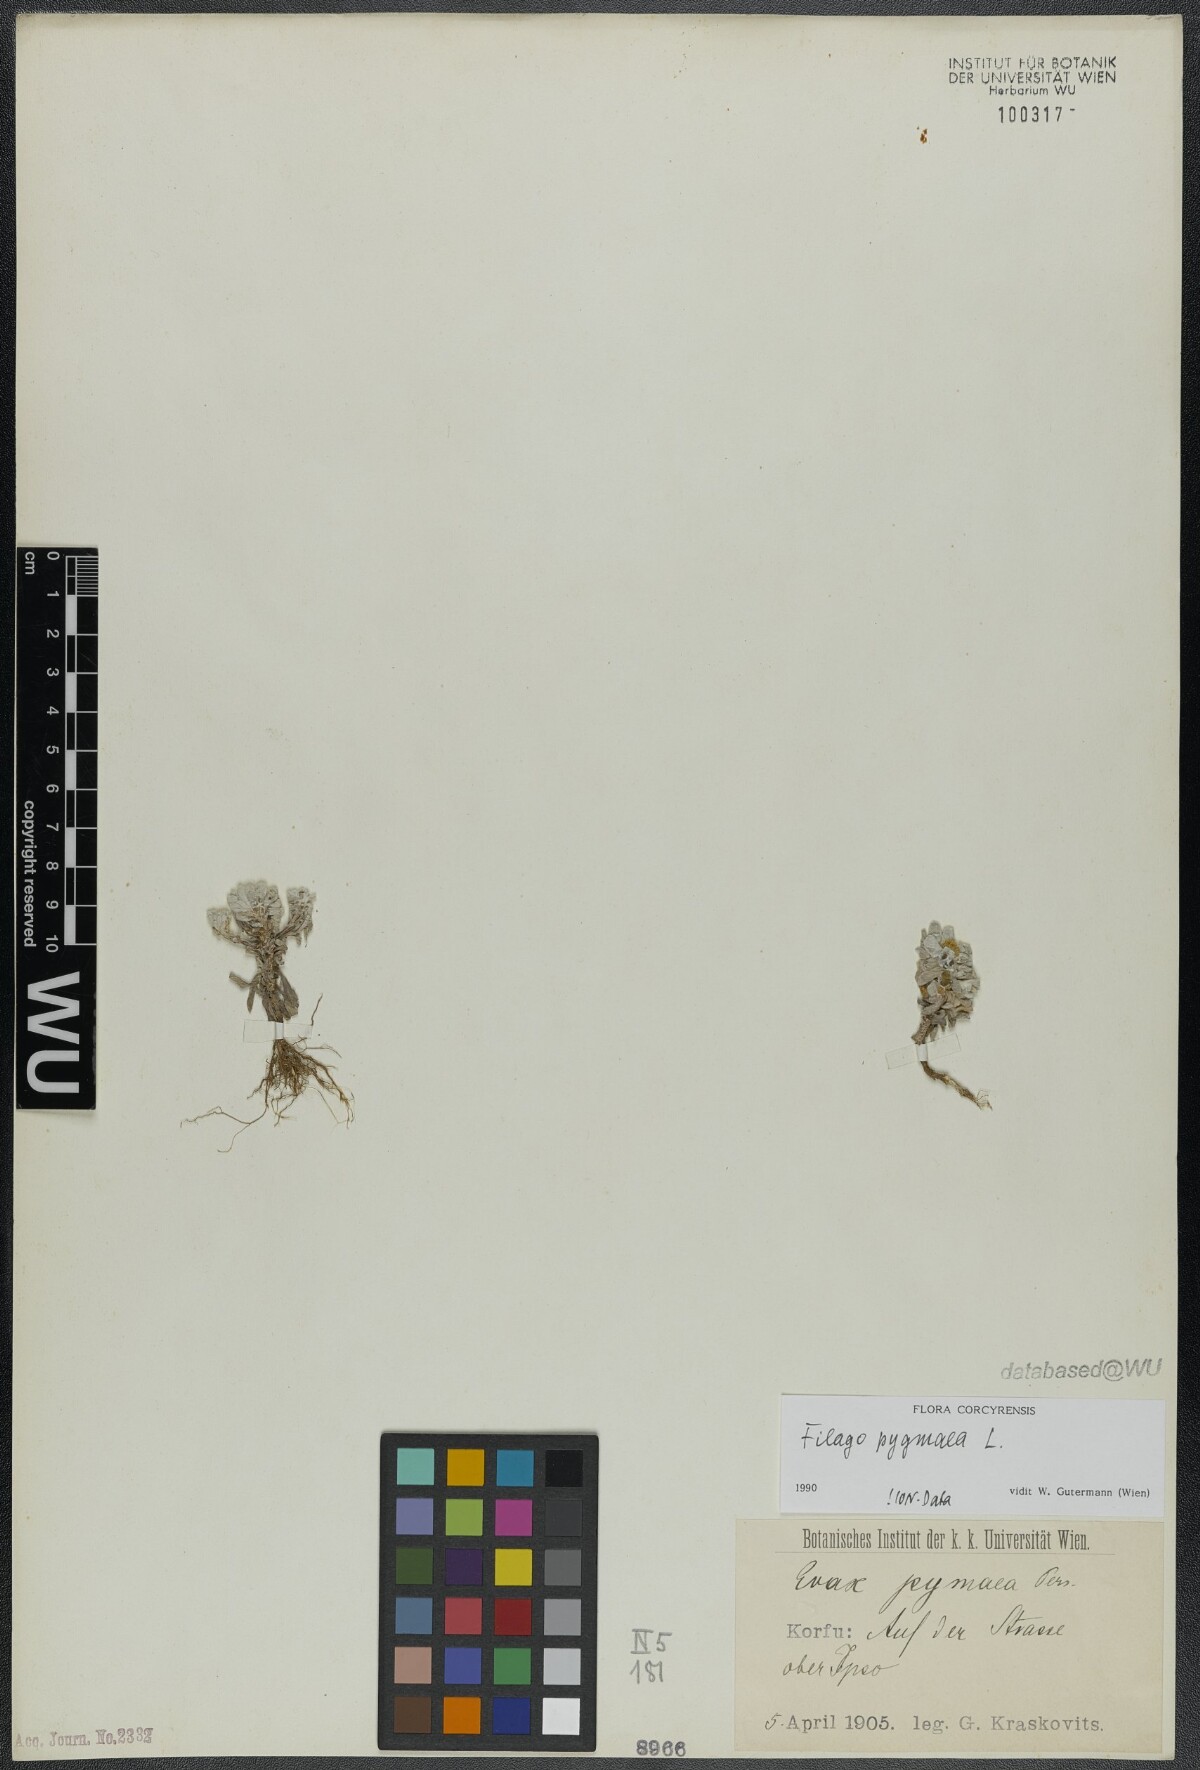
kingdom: Plantae
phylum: Tracheophyta
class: Magnoliopsida
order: Asterales
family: Asteraceae
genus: Filago
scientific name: Filago pygmaea
